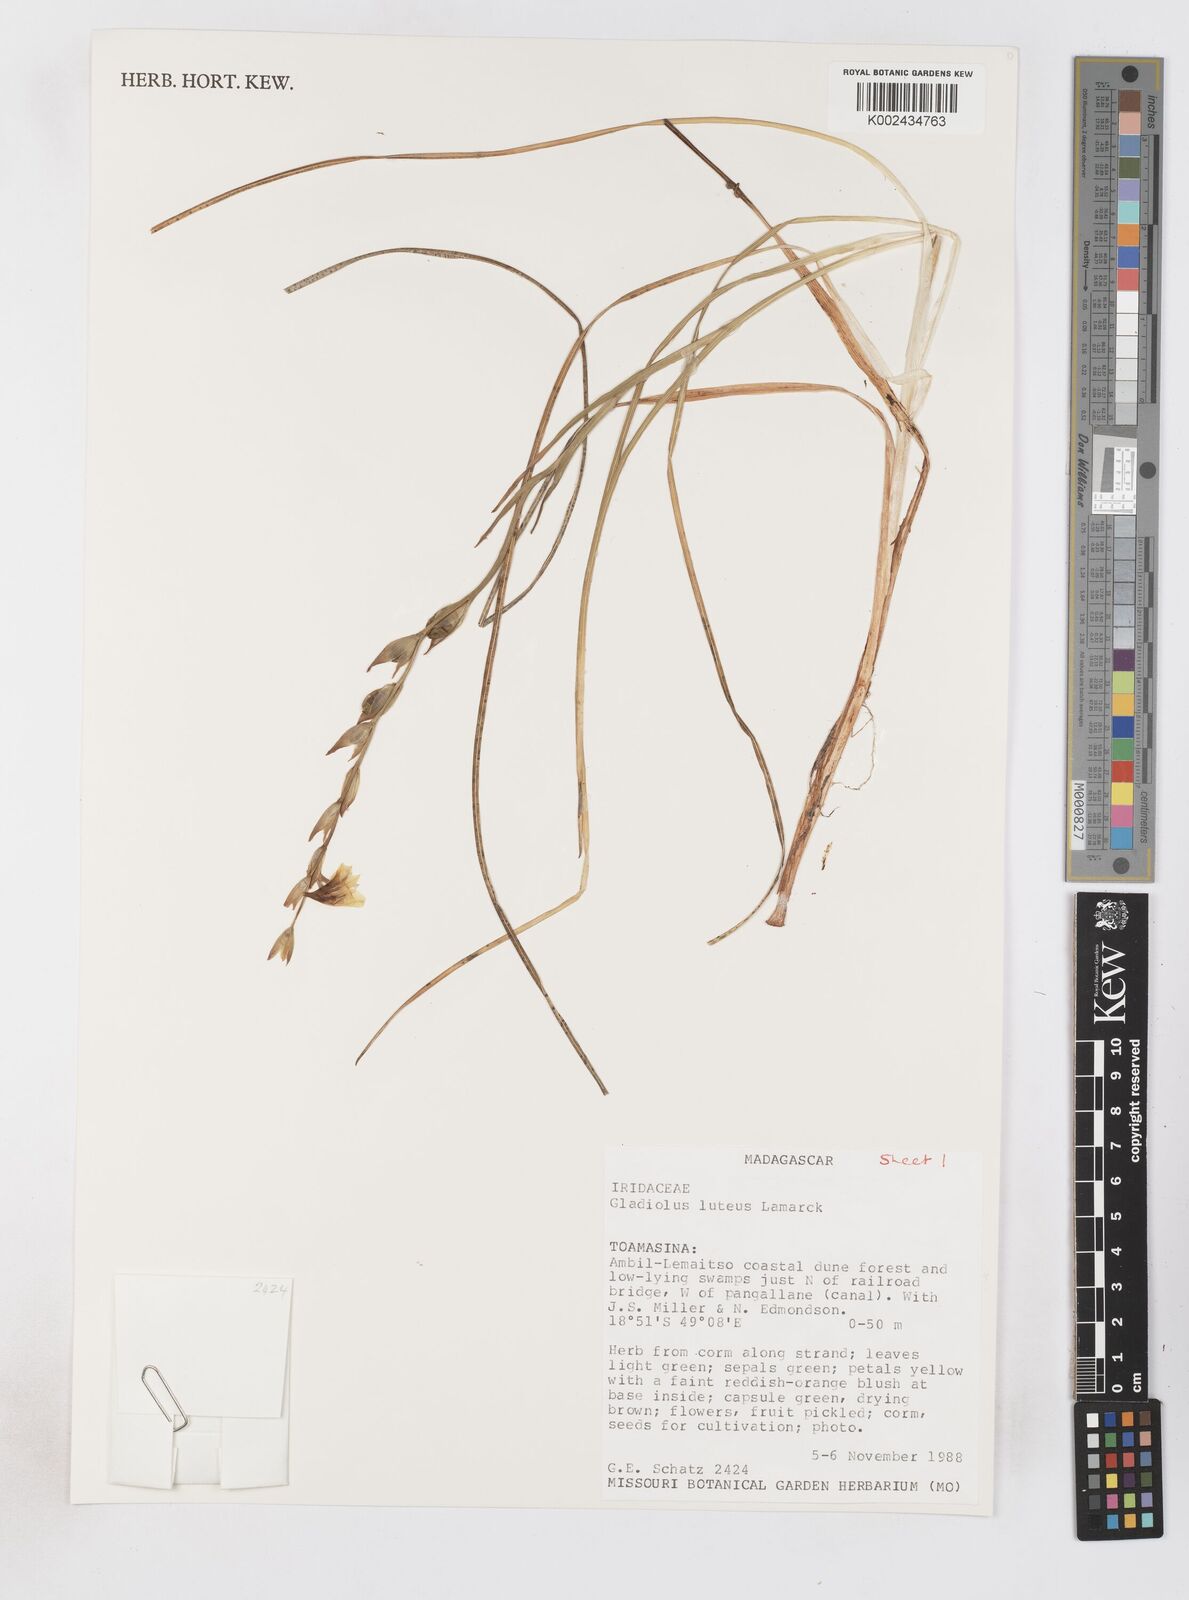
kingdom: Plantae
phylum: Tracheophyta
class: Liliopsida
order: Asparagales
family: Iridaceae
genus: Gladiolus
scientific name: Gladiolus luteus
